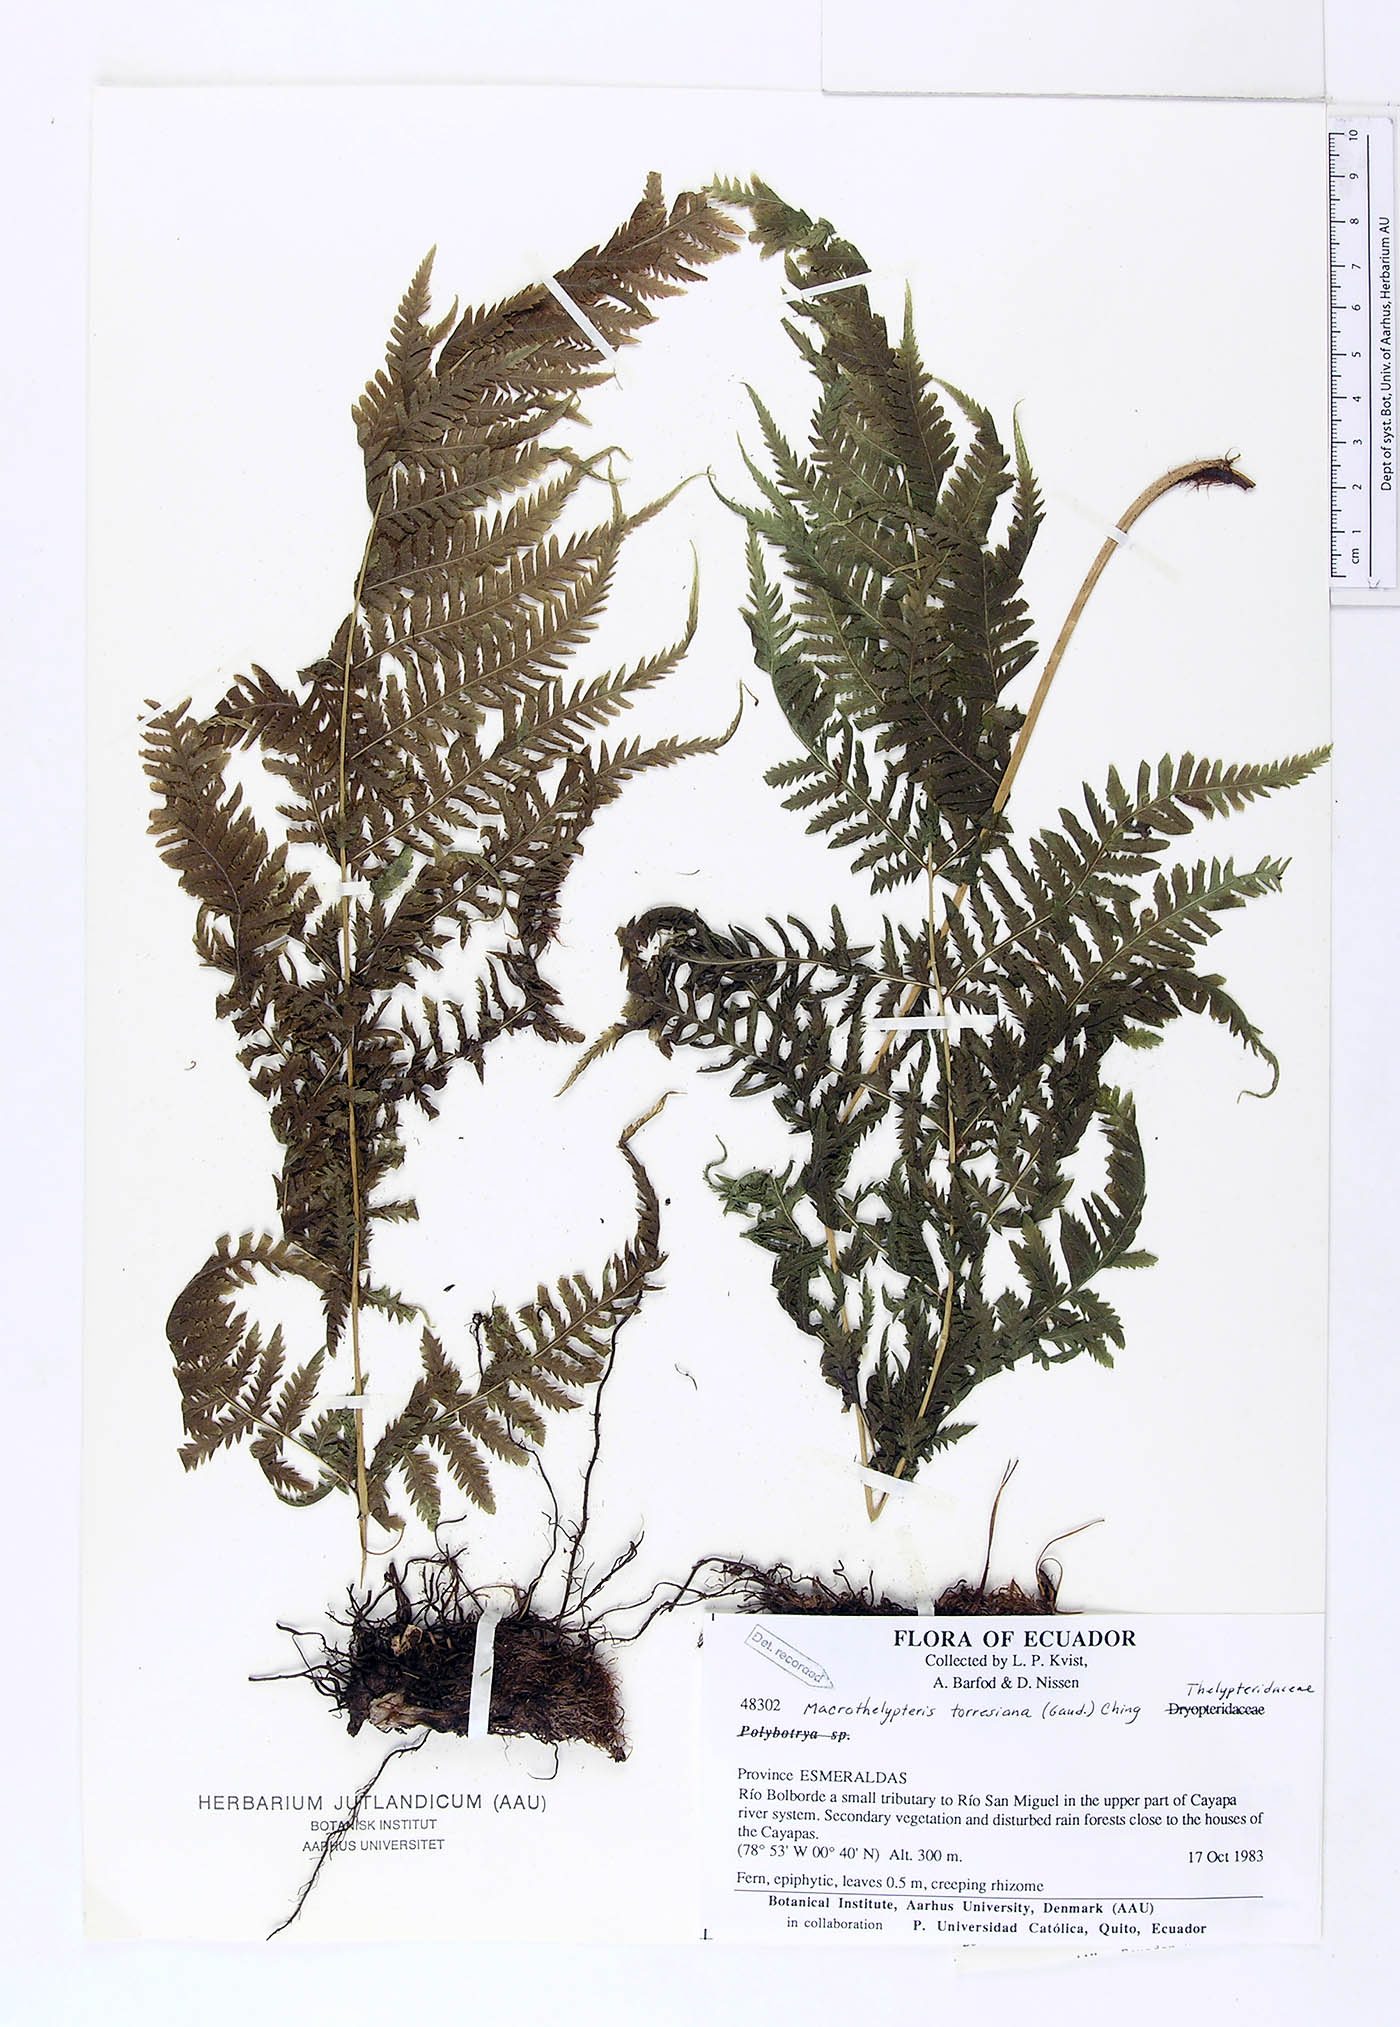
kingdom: Plantae
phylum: Tracheophyta
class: Polypodiopsida
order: Polypodiales
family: Thelypteridaceae
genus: Macrothelypteris
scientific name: Macrothelypteris torresiana
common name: Swordfern
